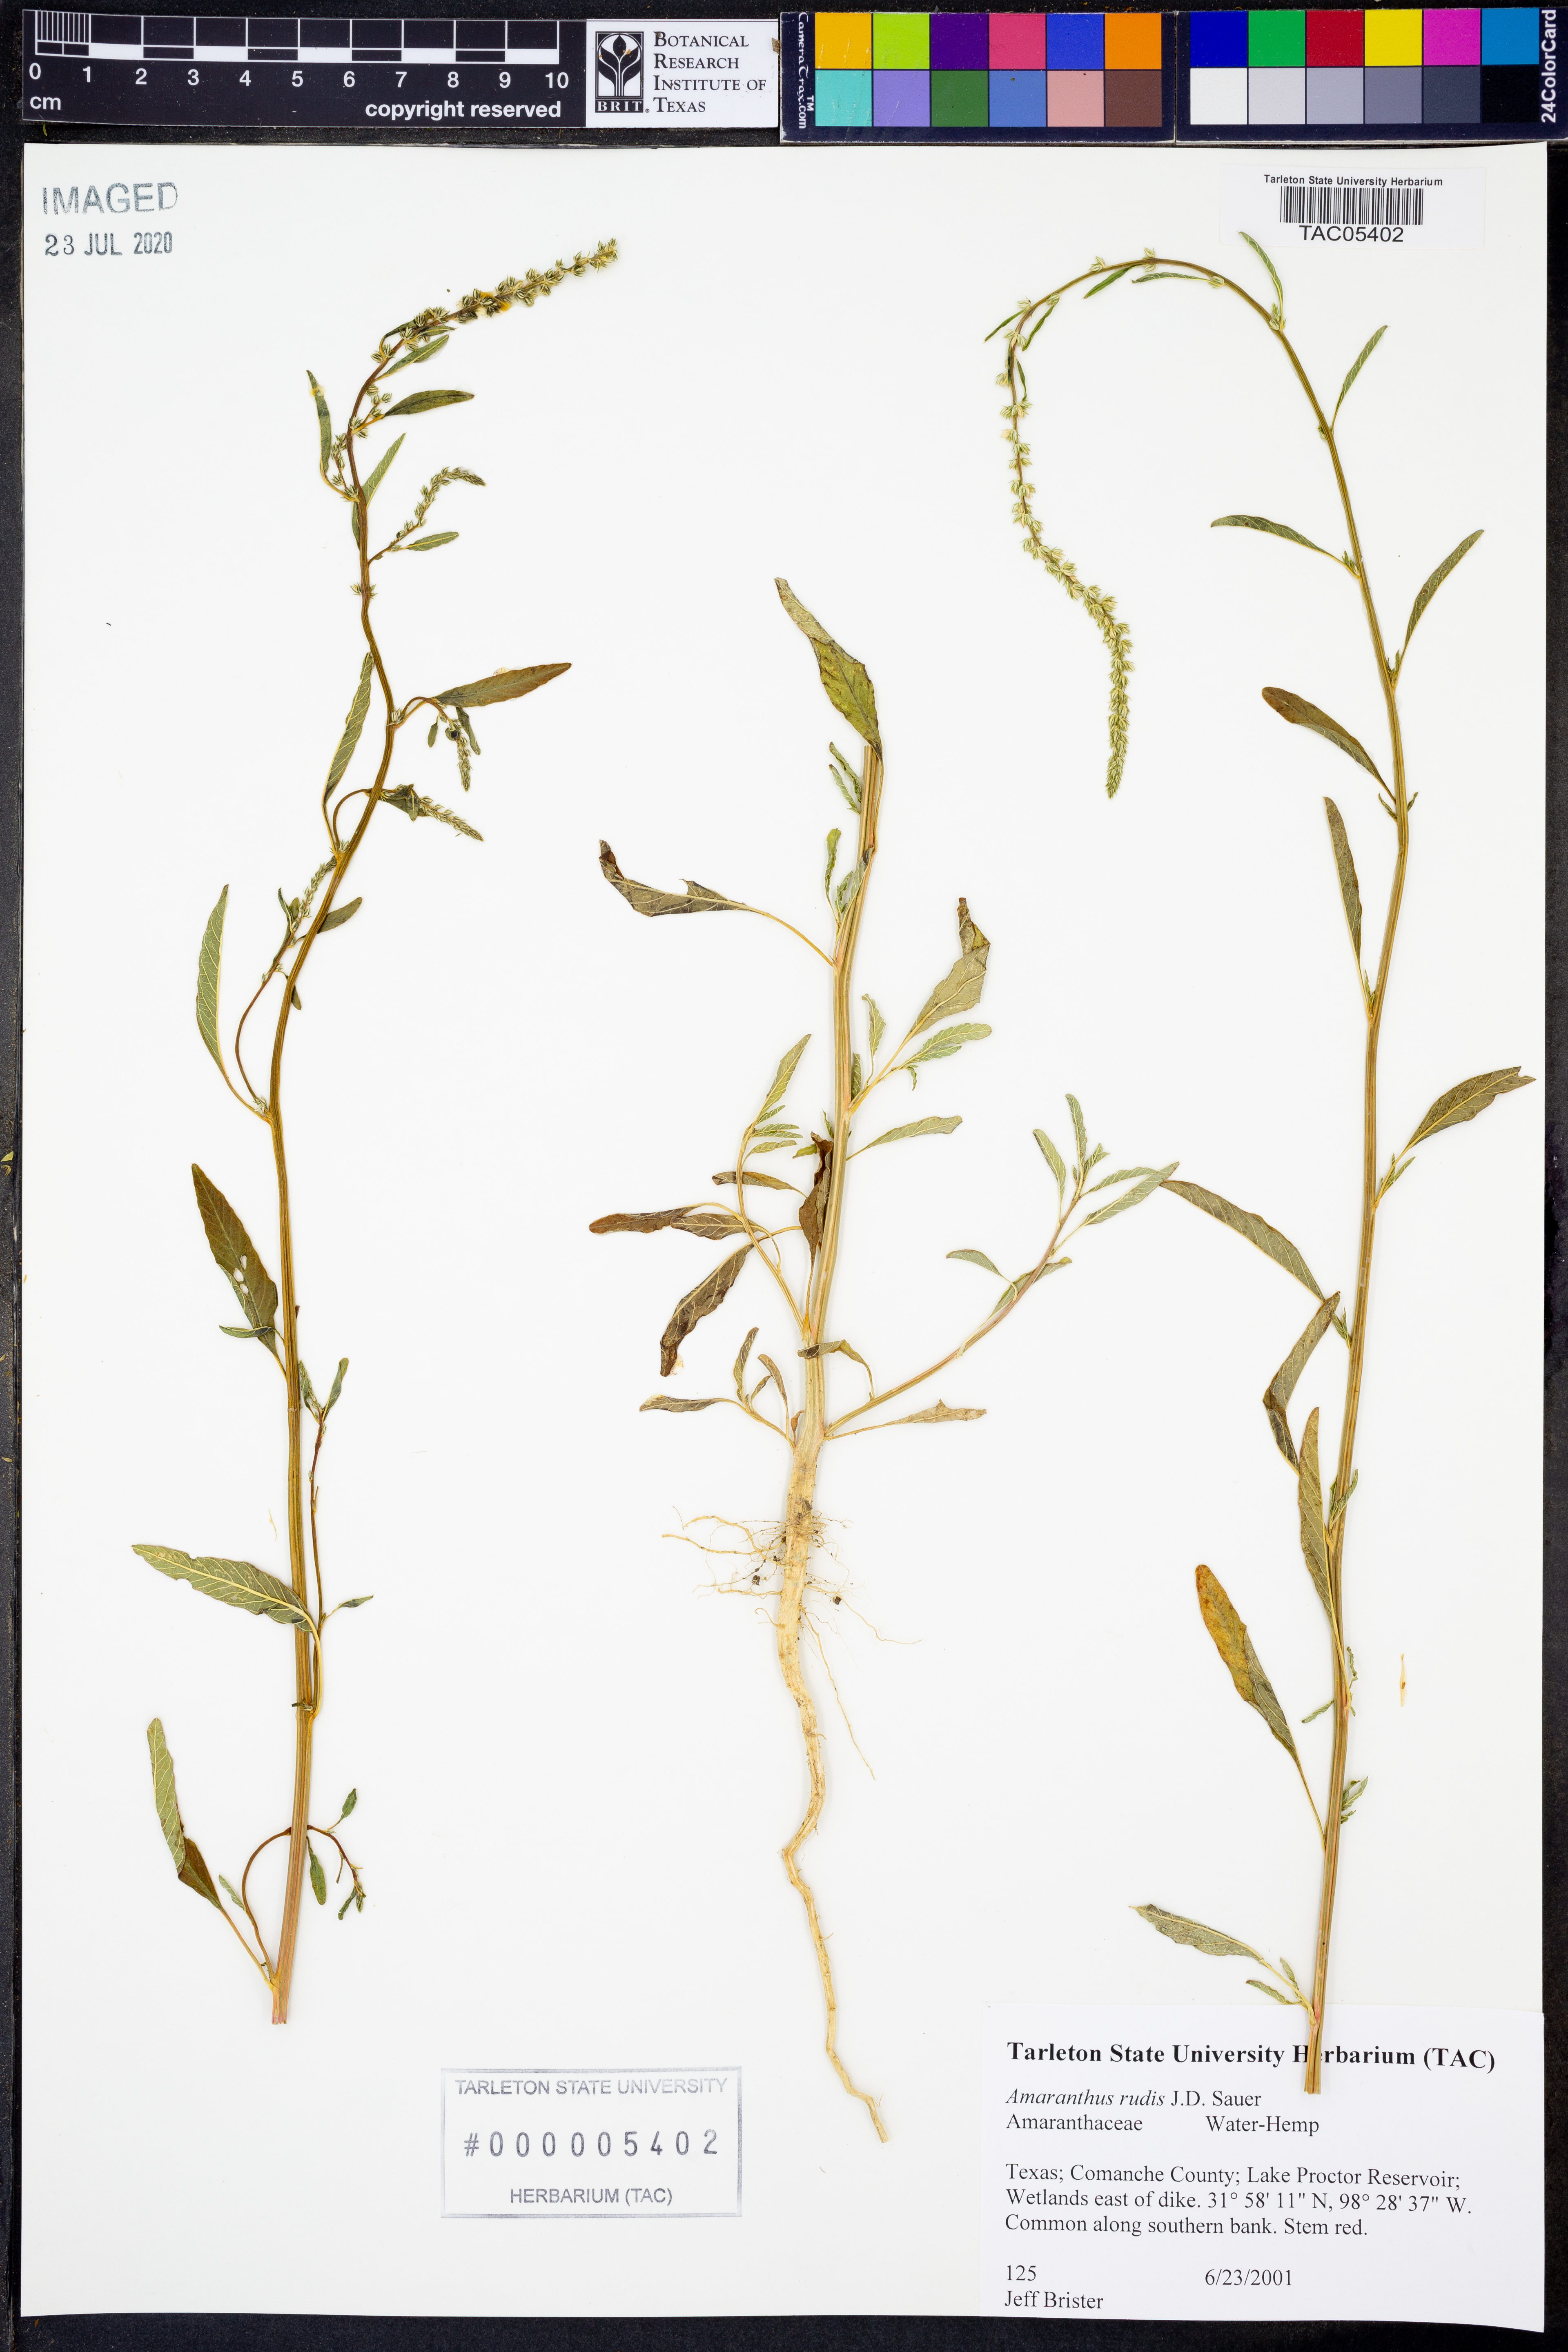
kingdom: Plantae
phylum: Tracheophyta
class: Magnoliopsida
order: Caryophyllales
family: Amaranthaceae
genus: Amaranthus
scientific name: Amaranthus tuberculatus
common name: Rough-fruit amaranth
